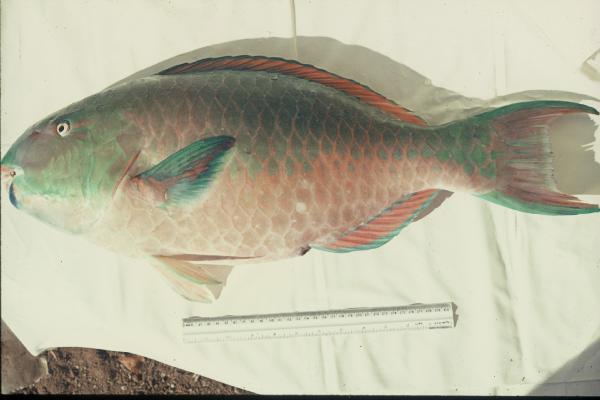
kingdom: Animalia
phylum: Chordata
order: Perciformes
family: Scaridae
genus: Scarus
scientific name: Scarus ghobban
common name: Blue-barred parrotfish
